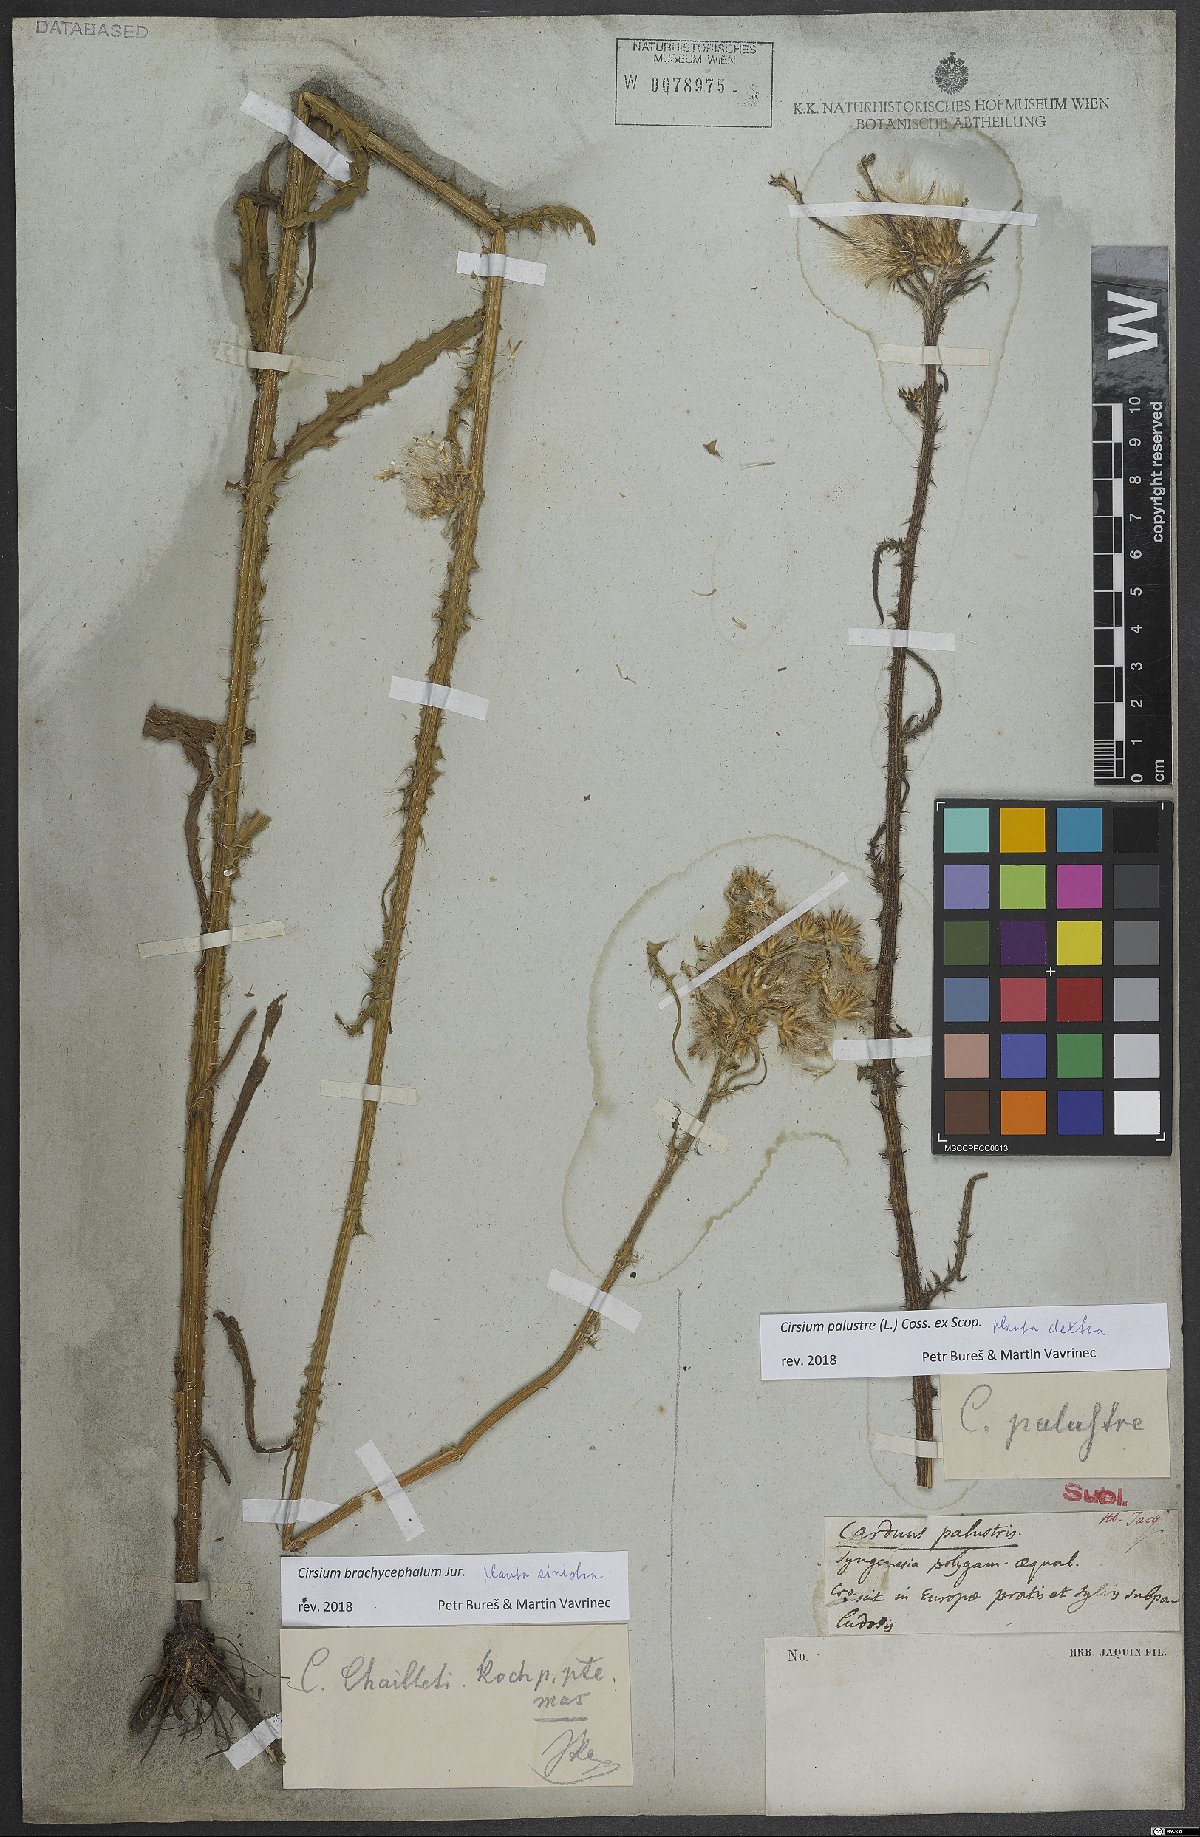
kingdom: Plantae
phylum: Tracheophyta
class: Magnoliopsida
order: Asterales
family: Asteraceae
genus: Cirsium
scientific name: Cirsium palustre
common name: Marsh thistle
